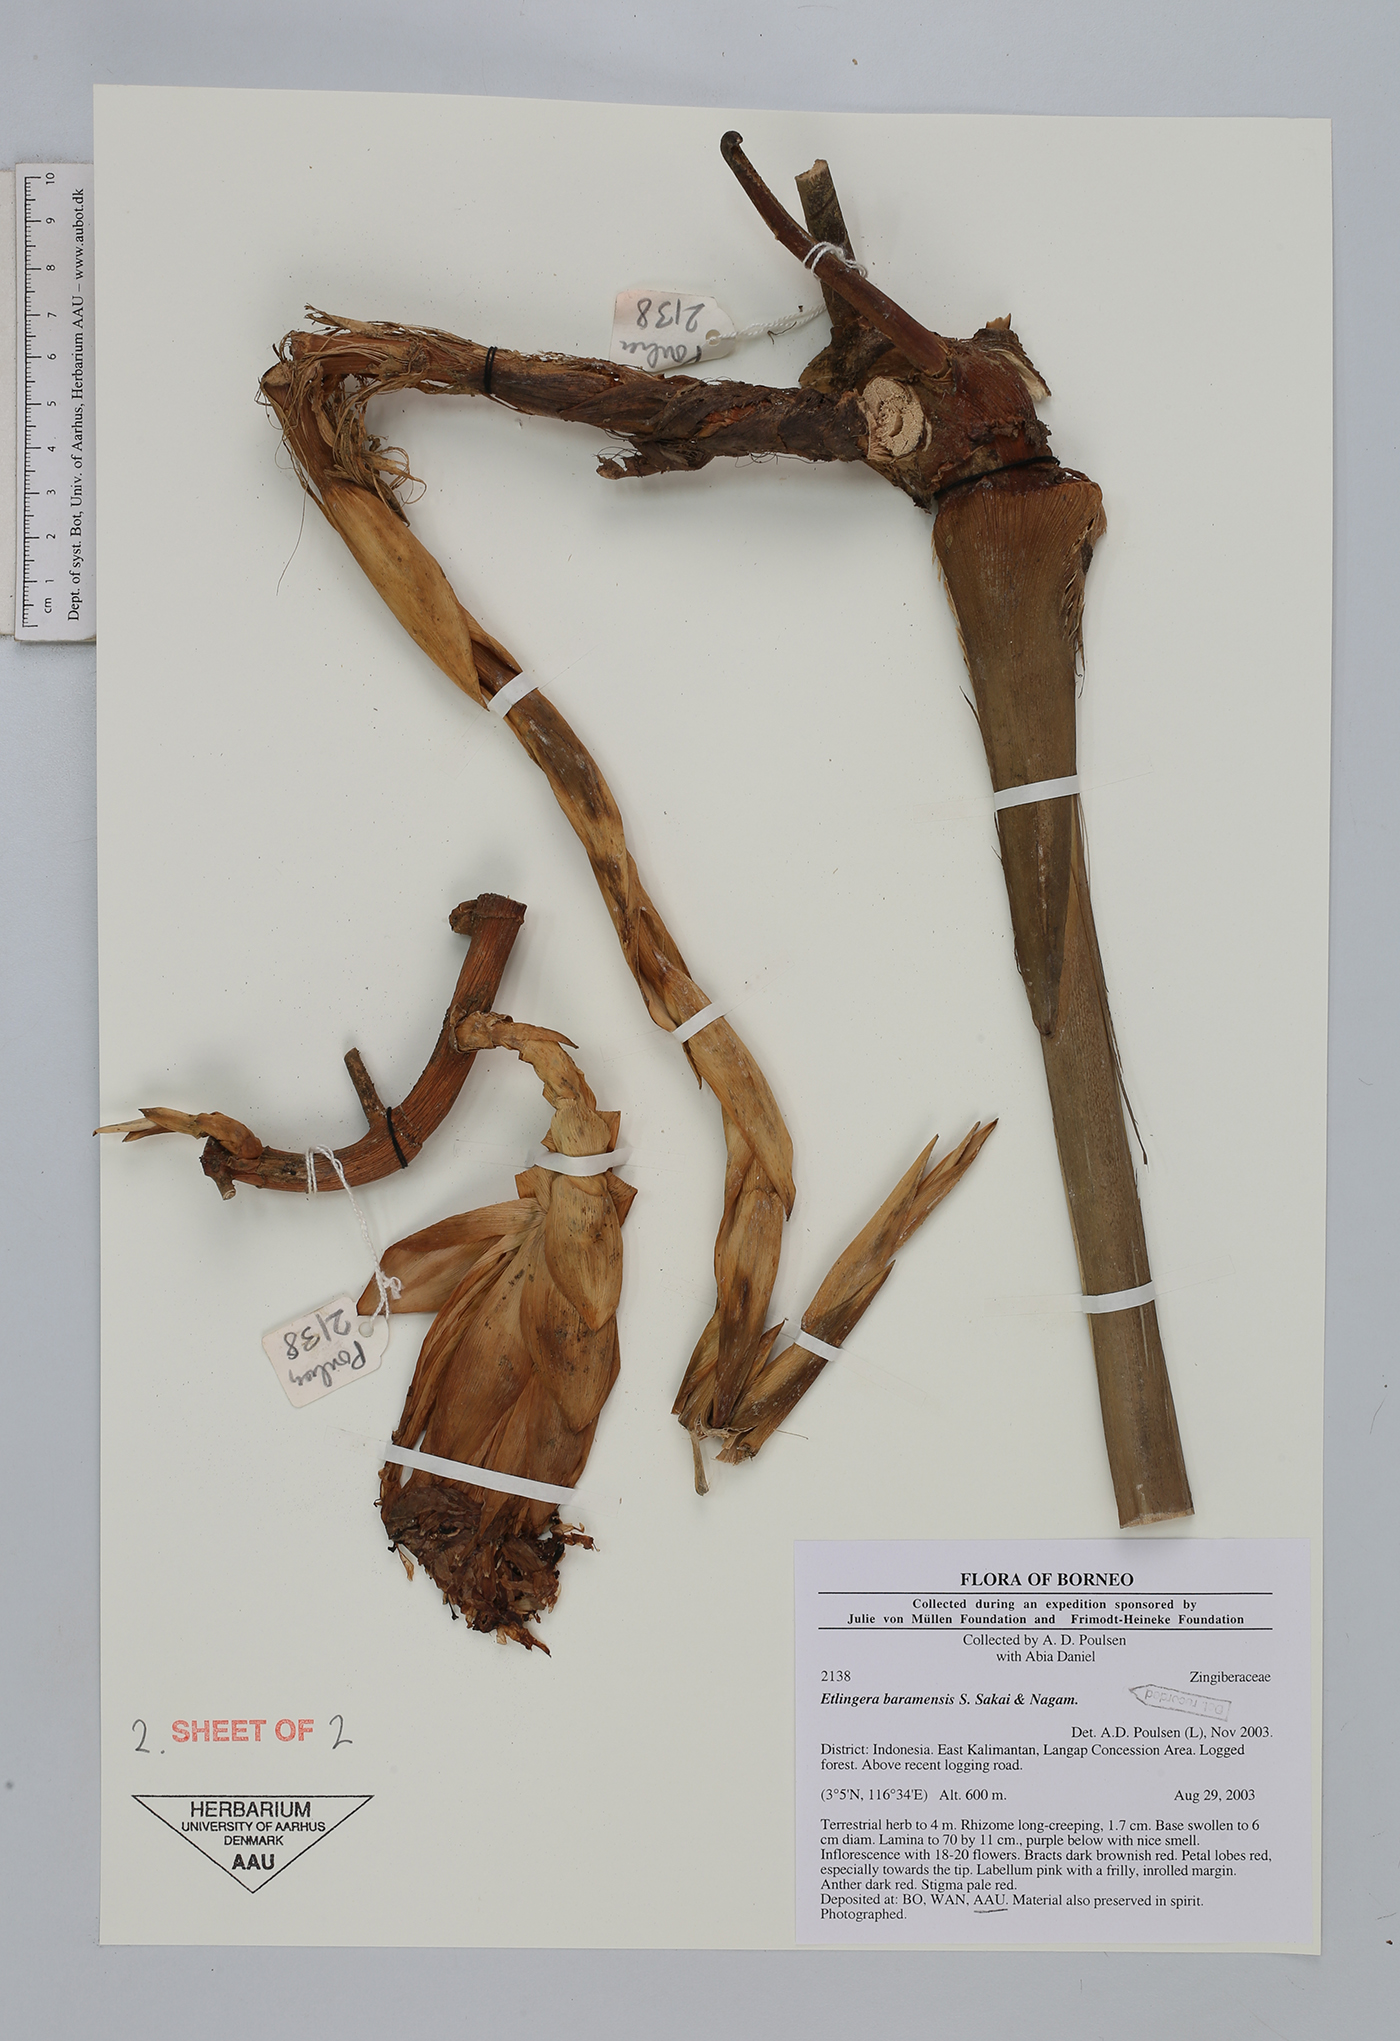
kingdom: Plantae
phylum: Tracheophyta
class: Liliopsida
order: Zingiberales
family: Zingiberaceae
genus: Etlingera
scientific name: Etlingera baramensis
